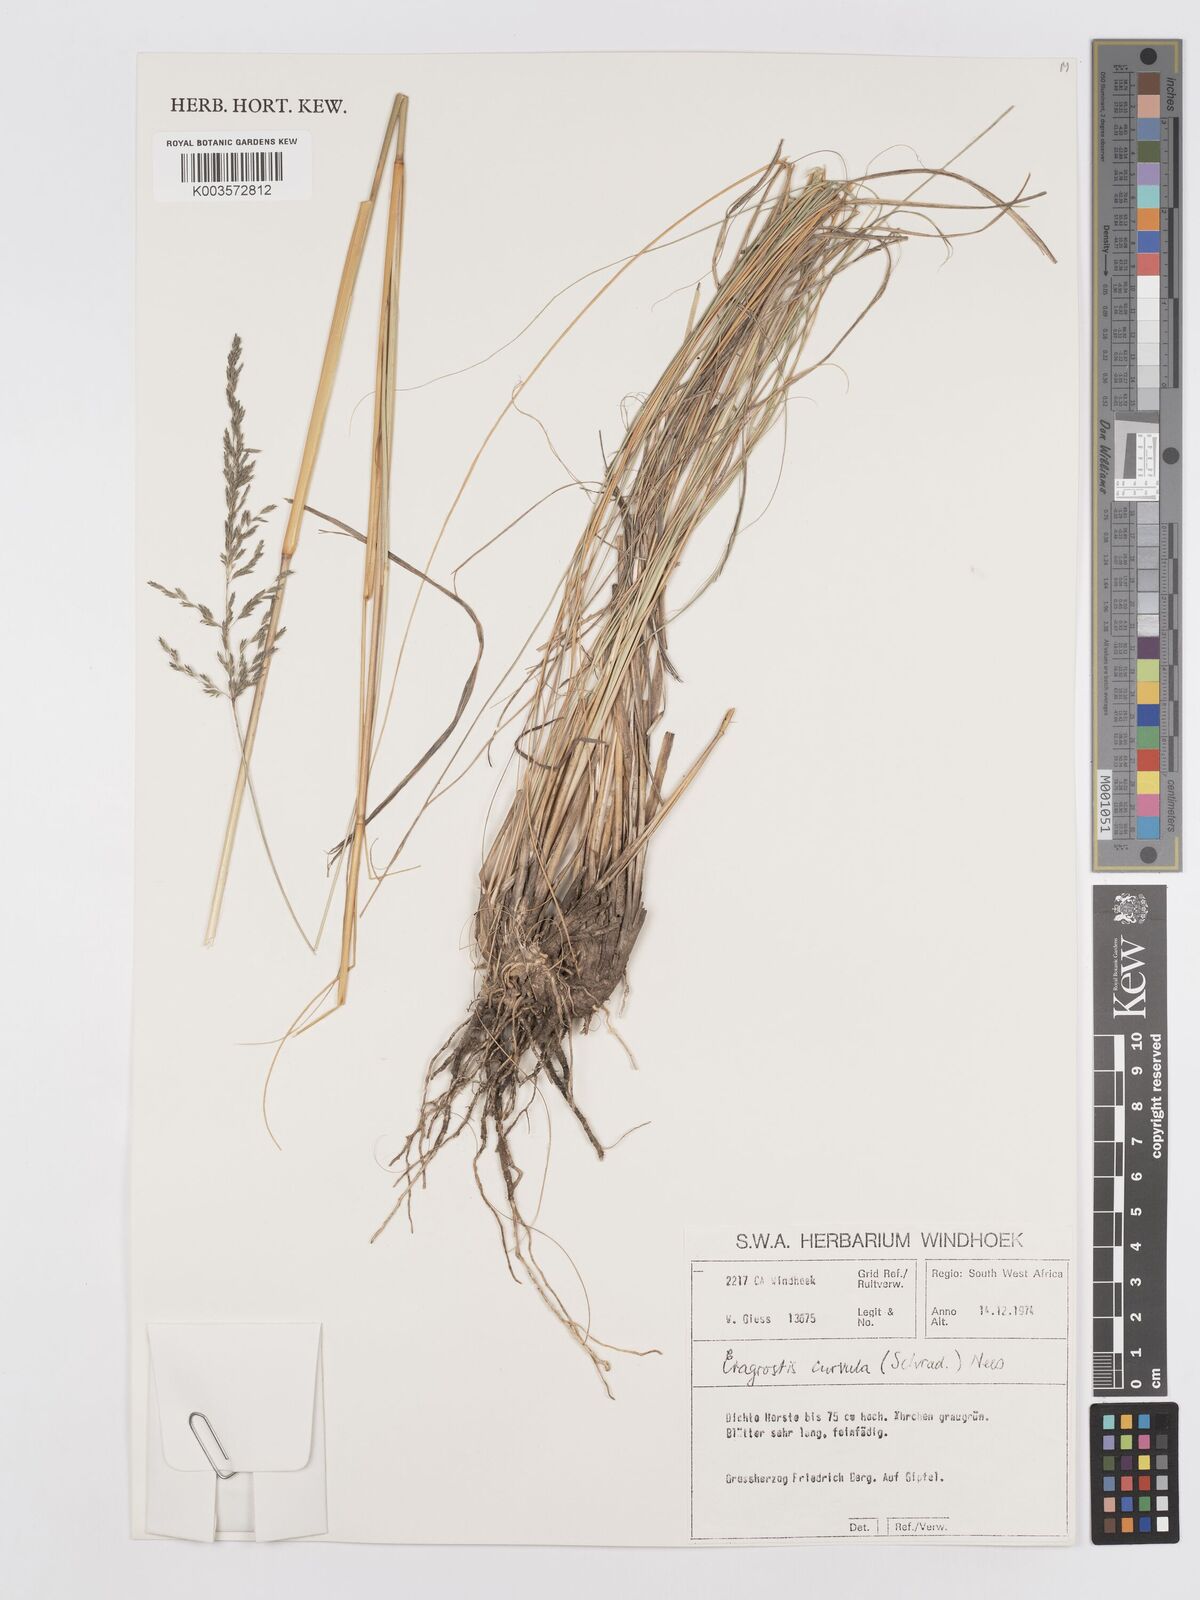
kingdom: Plantae
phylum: Tracheophyta
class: Liliopsida
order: Poales
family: Poaceae
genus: Eragrostis
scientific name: Eragrostis curvula
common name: African love-grass
